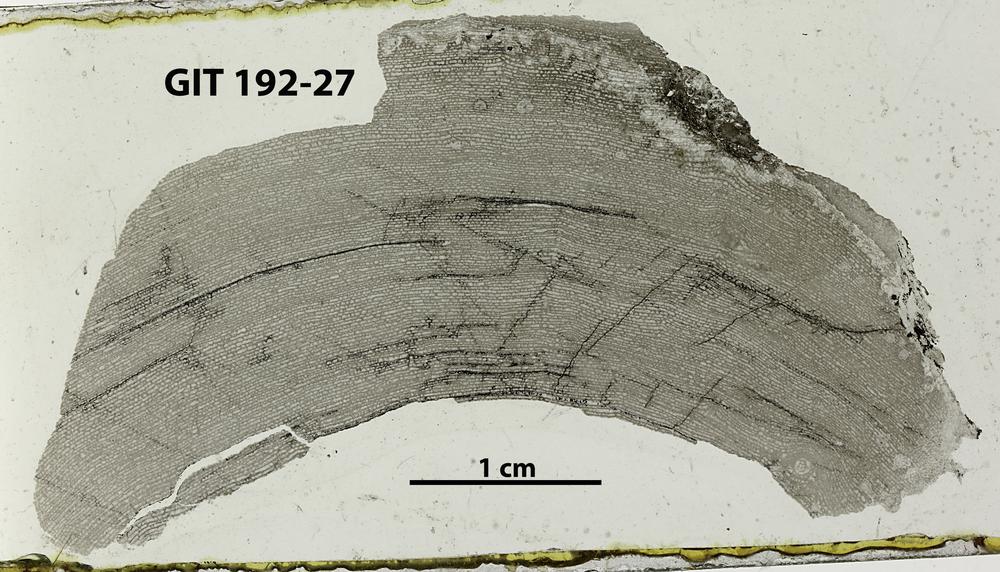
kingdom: Animalia
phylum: Porifera
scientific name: Porifera
